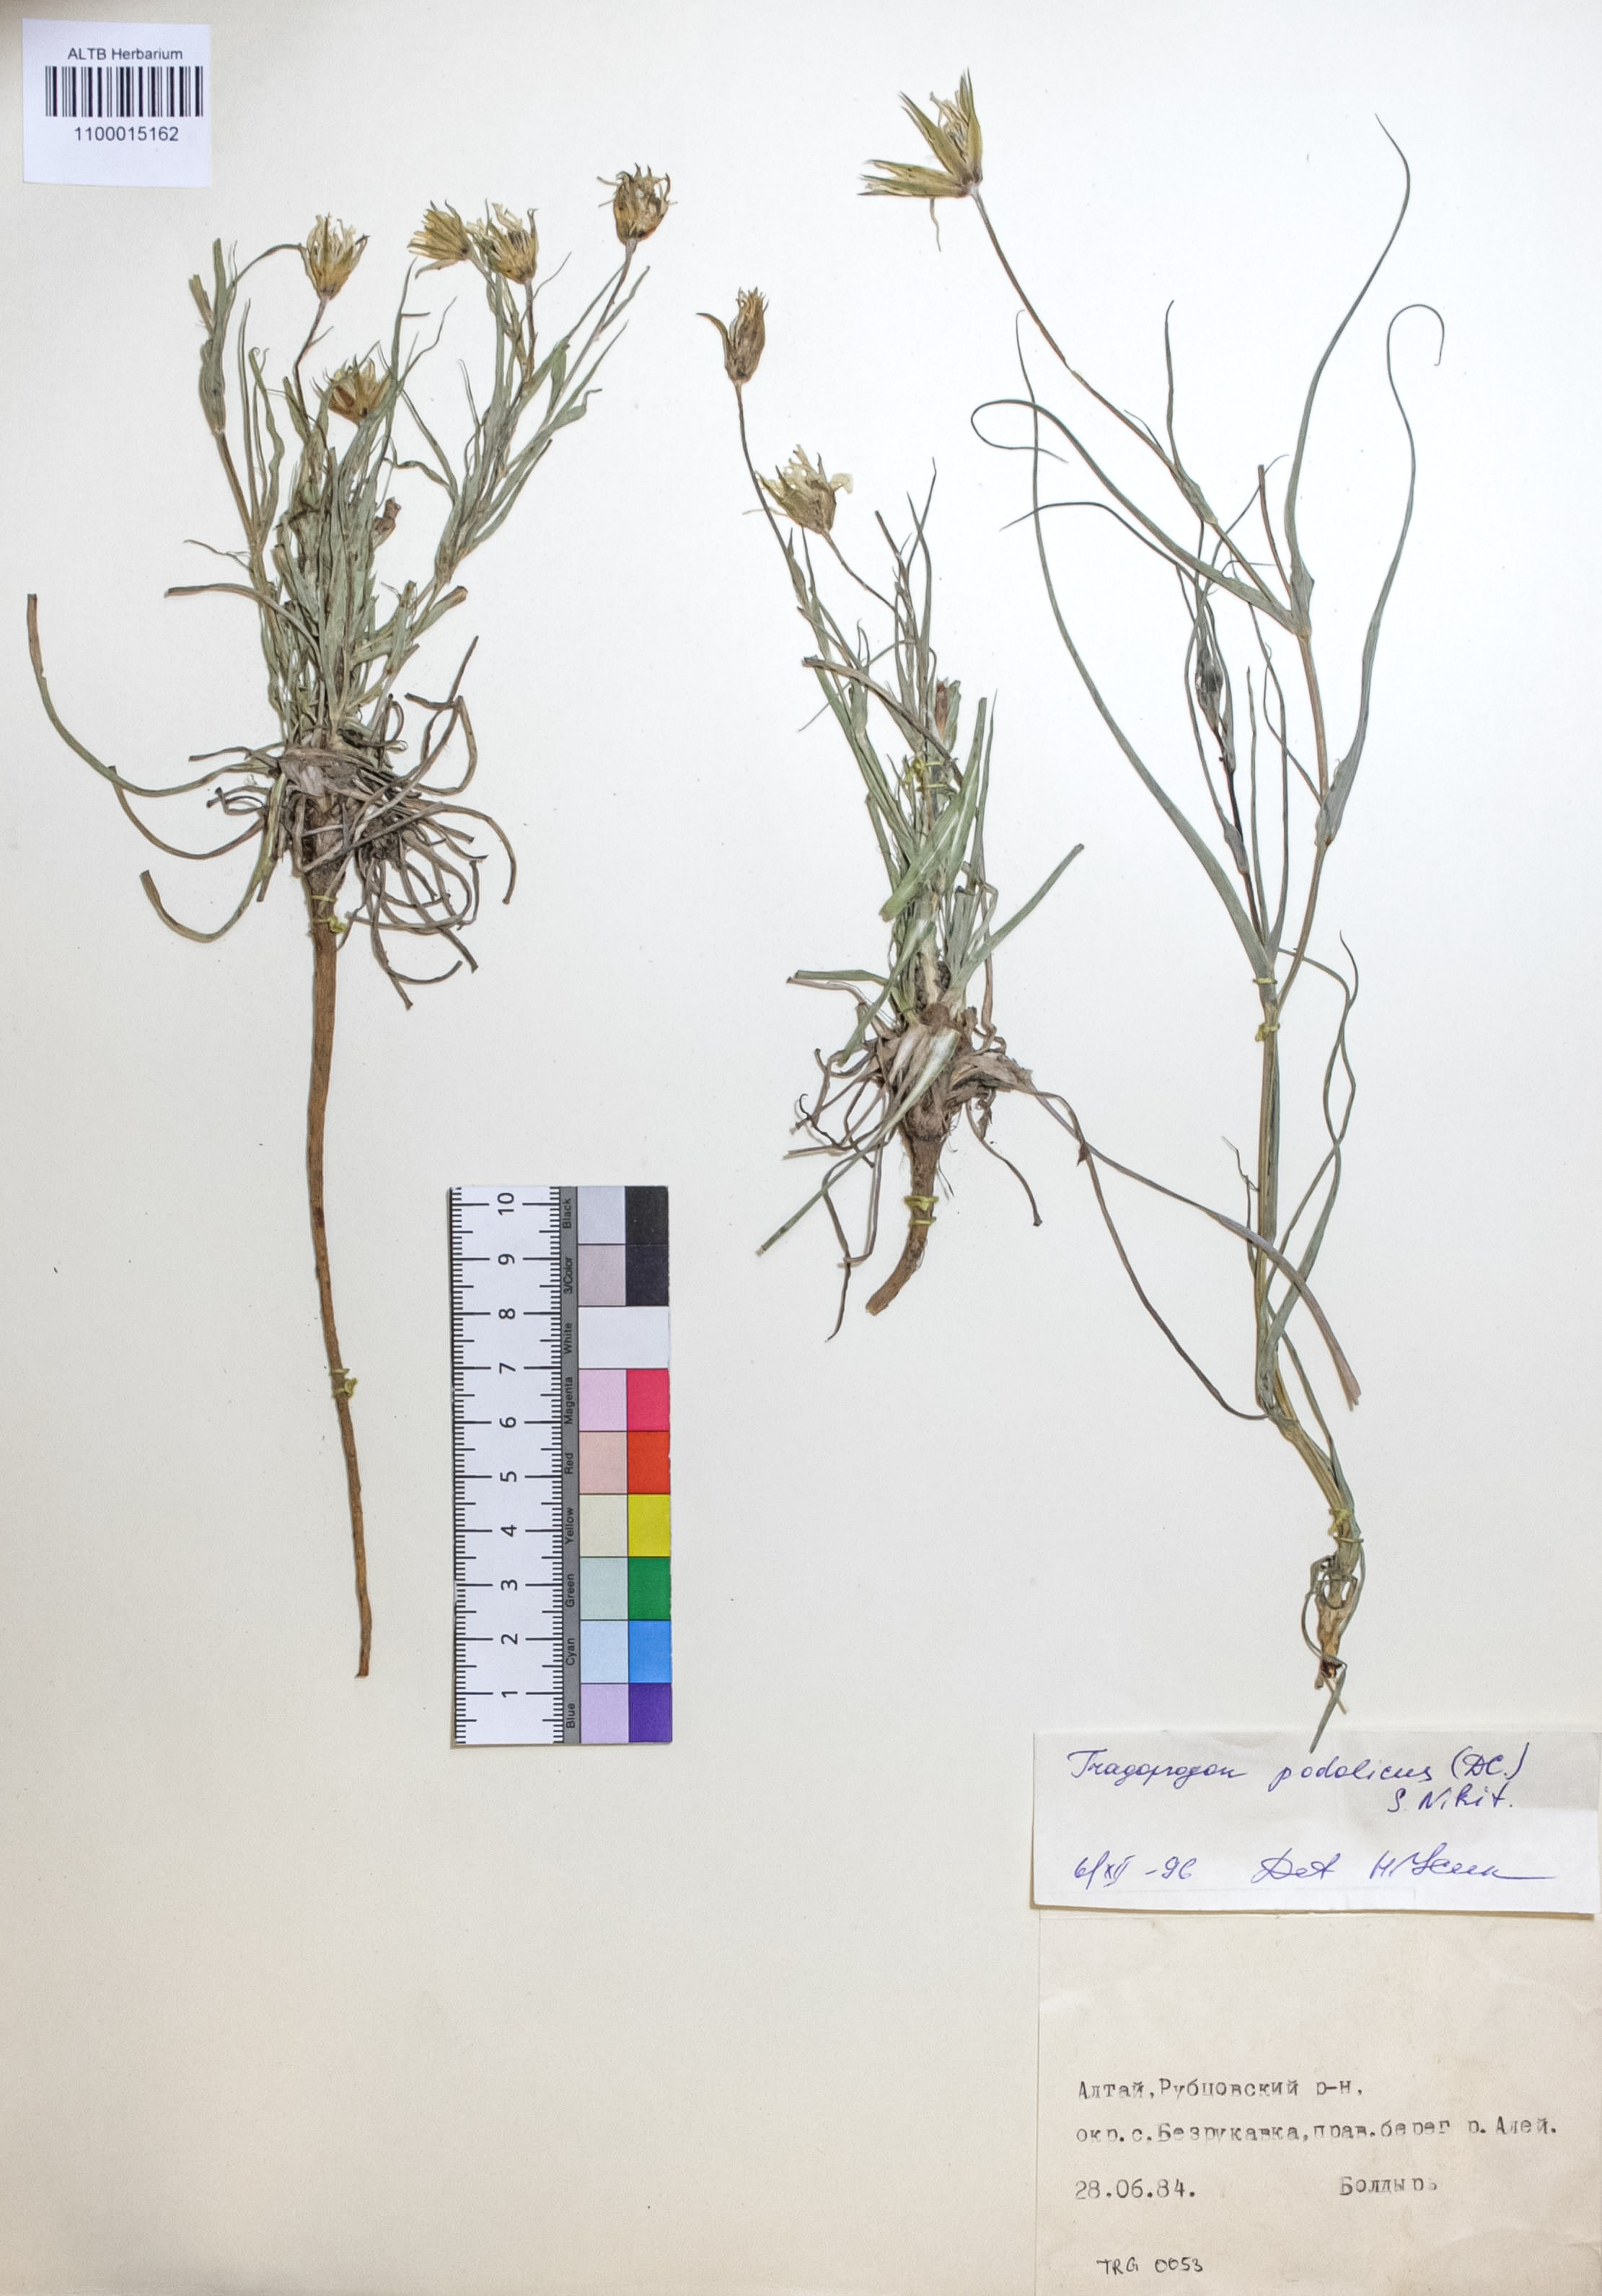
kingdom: Plantae
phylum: Tracheophyta
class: Magnoliopsida
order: Asterales
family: Asteraceae
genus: Tragopogon
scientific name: Tragopogon podolicus
